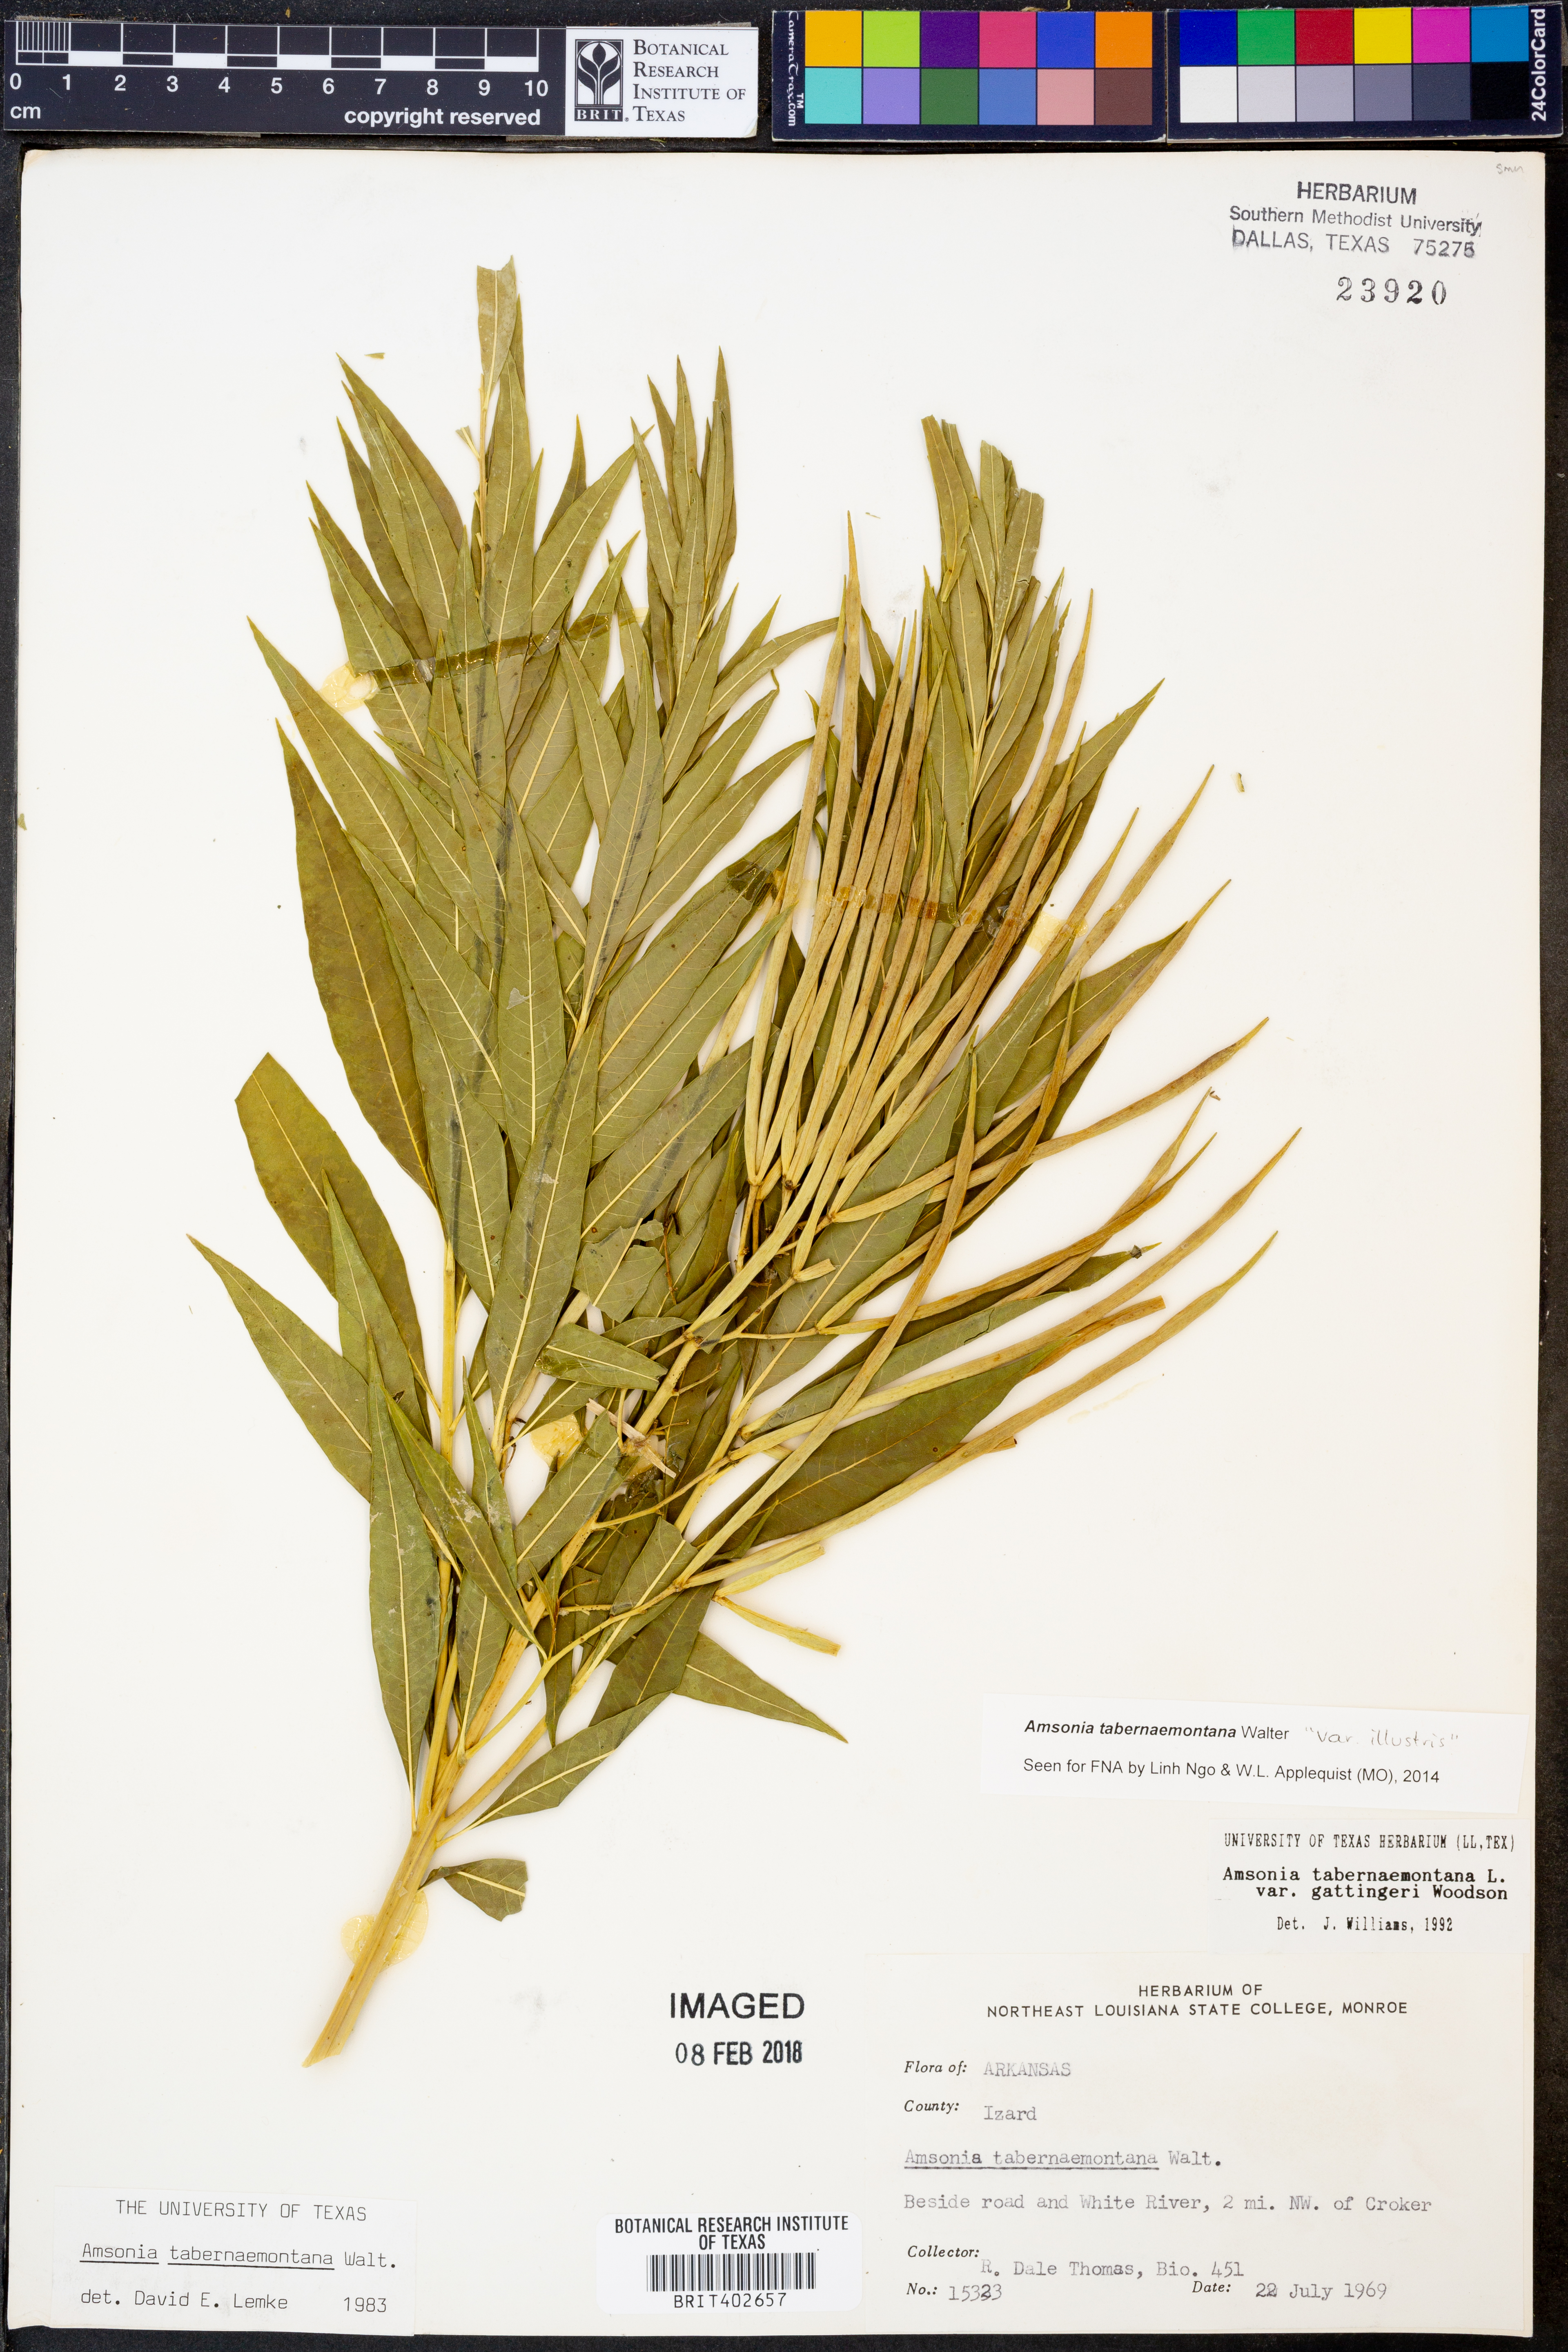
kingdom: Plantae
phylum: Tracheophyta
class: Magnoliopsida
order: Gentianales
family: Apocynaceae
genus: Amsonia
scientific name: Amsonia tabernaemontana
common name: Texas-star
